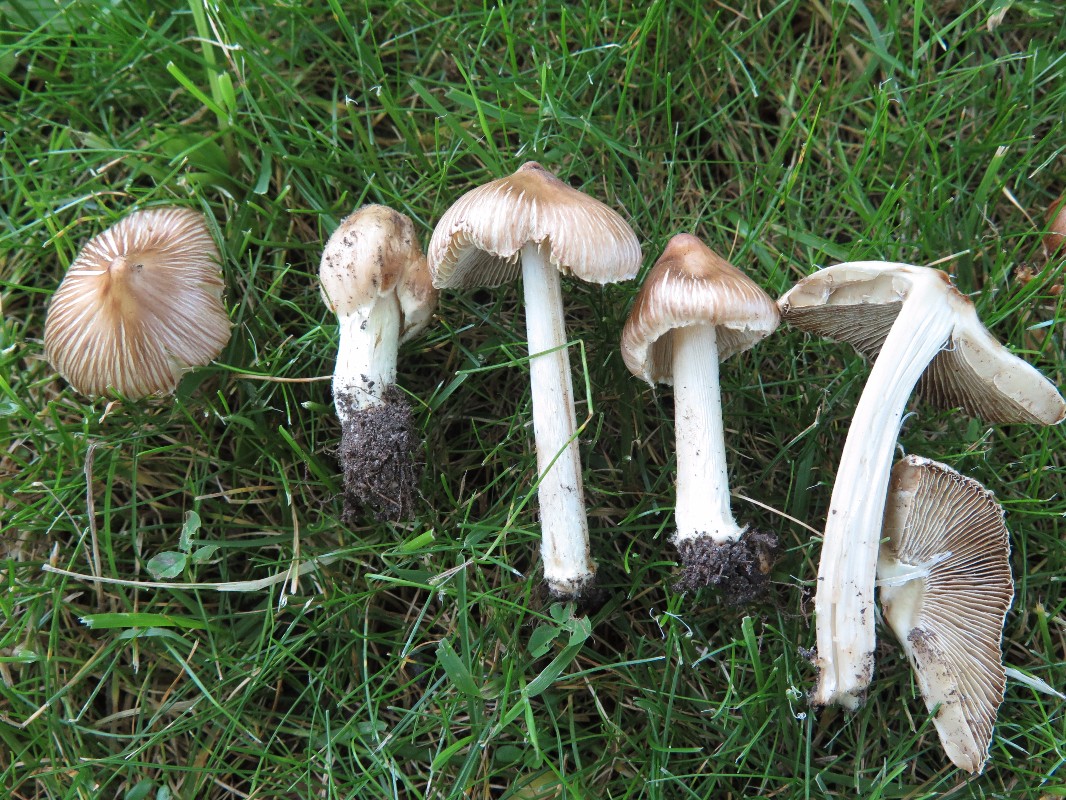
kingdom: Fungi
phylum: Basidiomycota
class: Agaricomycetes
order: Agaricales
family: Inocybaceae
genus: Pseudosperma
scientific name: Pseudosperma rimosum
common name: gulbladet trævlhat
